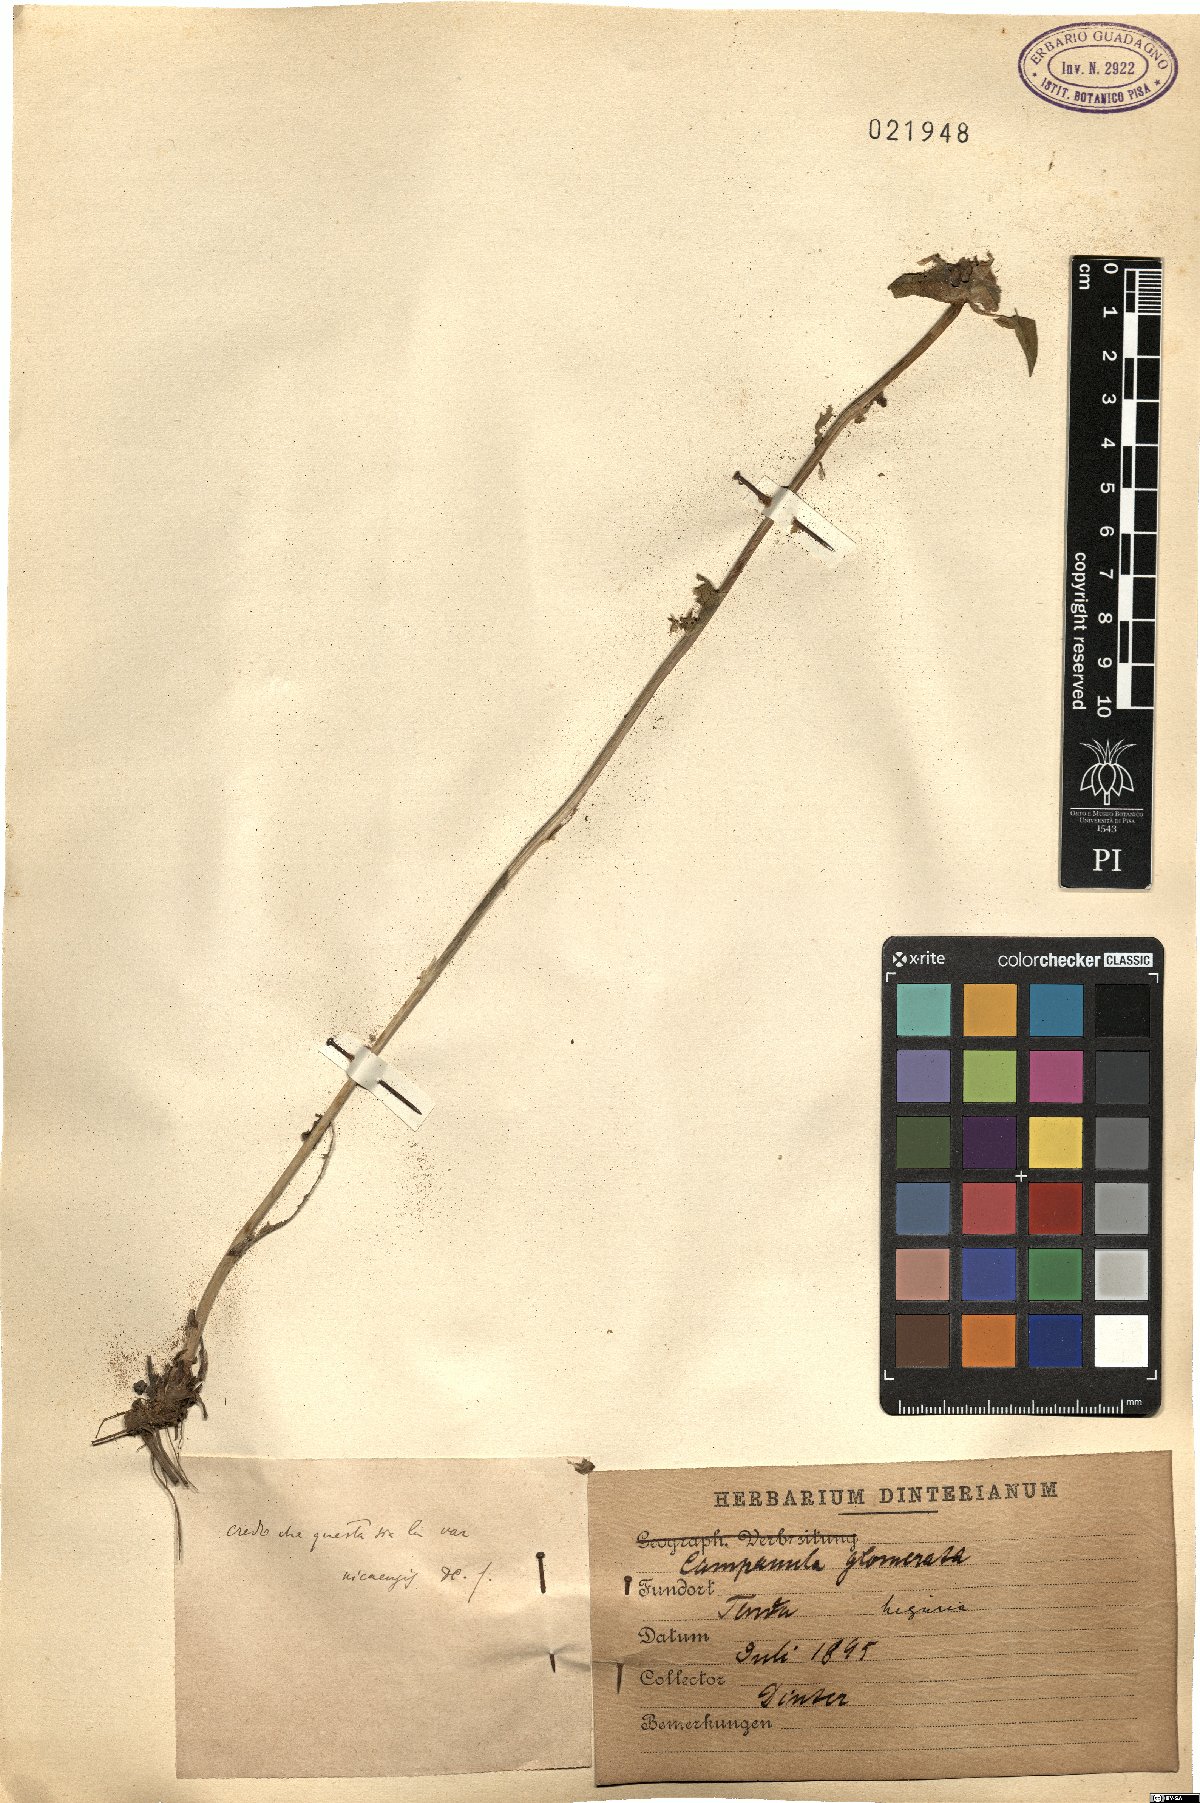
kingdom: Plantae
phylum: Tracheophyta
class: Magnoliopsida
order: Asterales
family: Campanulaceae
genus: Campanula
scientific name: Campanula glomerata
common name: Clustered bellflower
